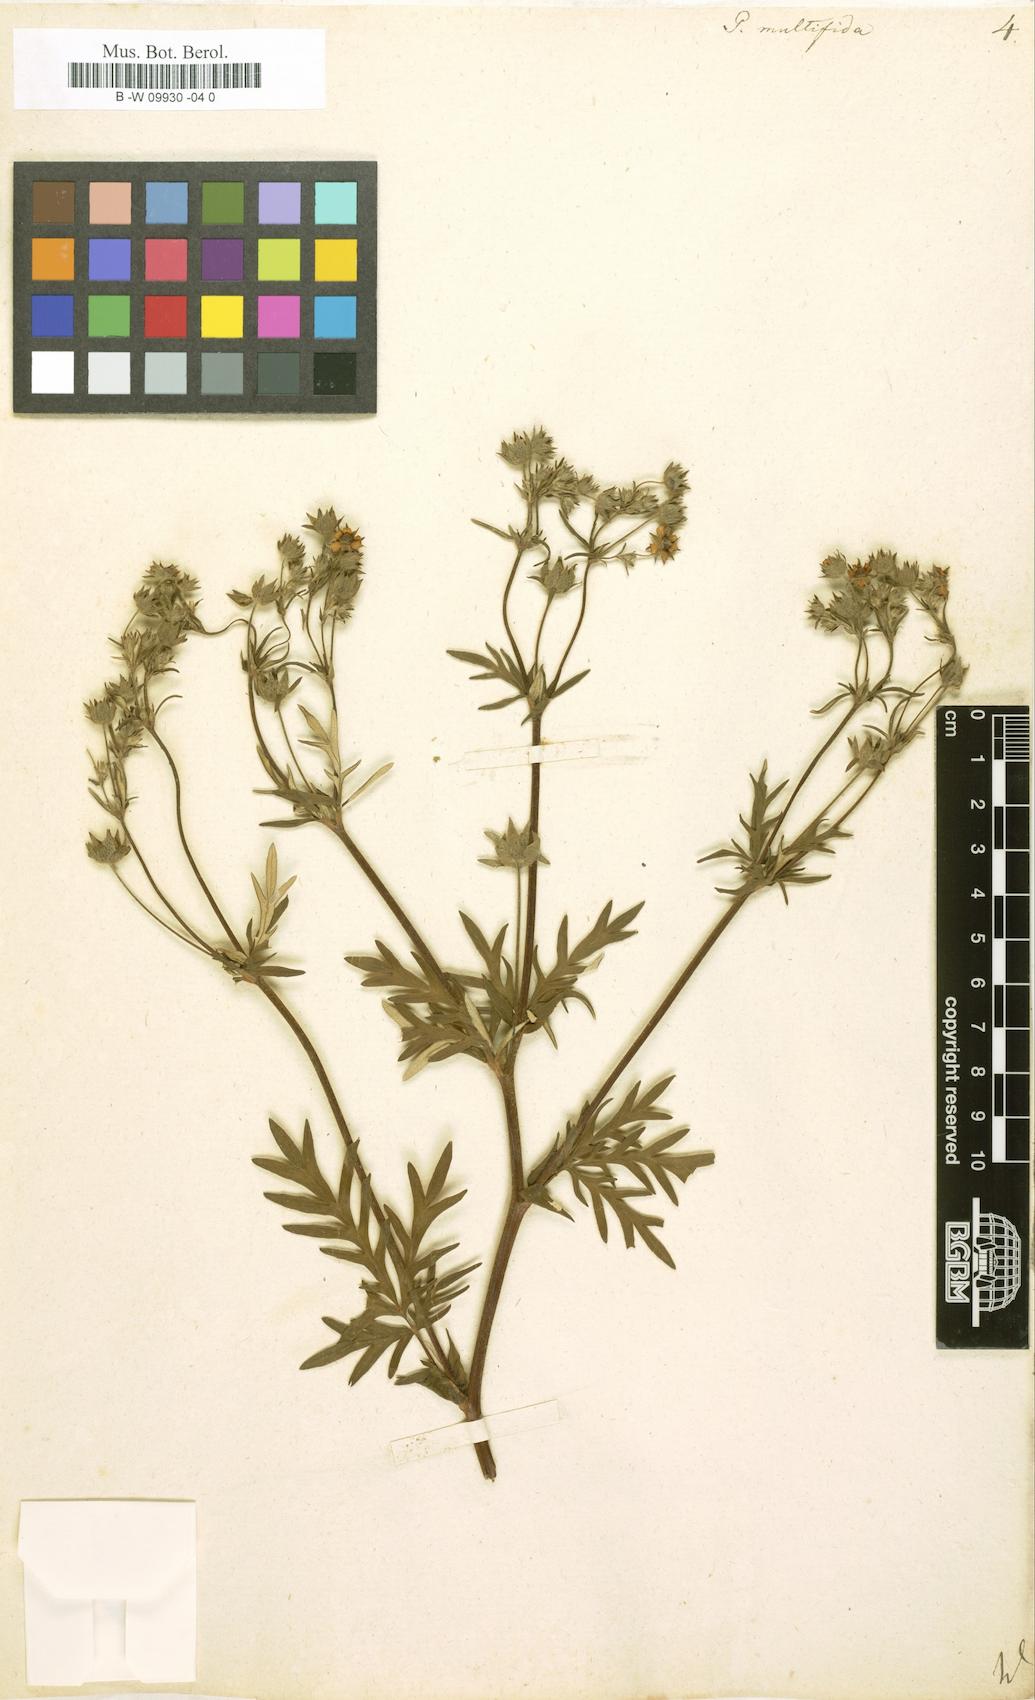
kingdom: Plantae
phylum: Tracheophyta
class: Magnoliopsida
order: Rosales
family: Rosaceae
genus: Potentilla
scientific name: Potentilla multifida
